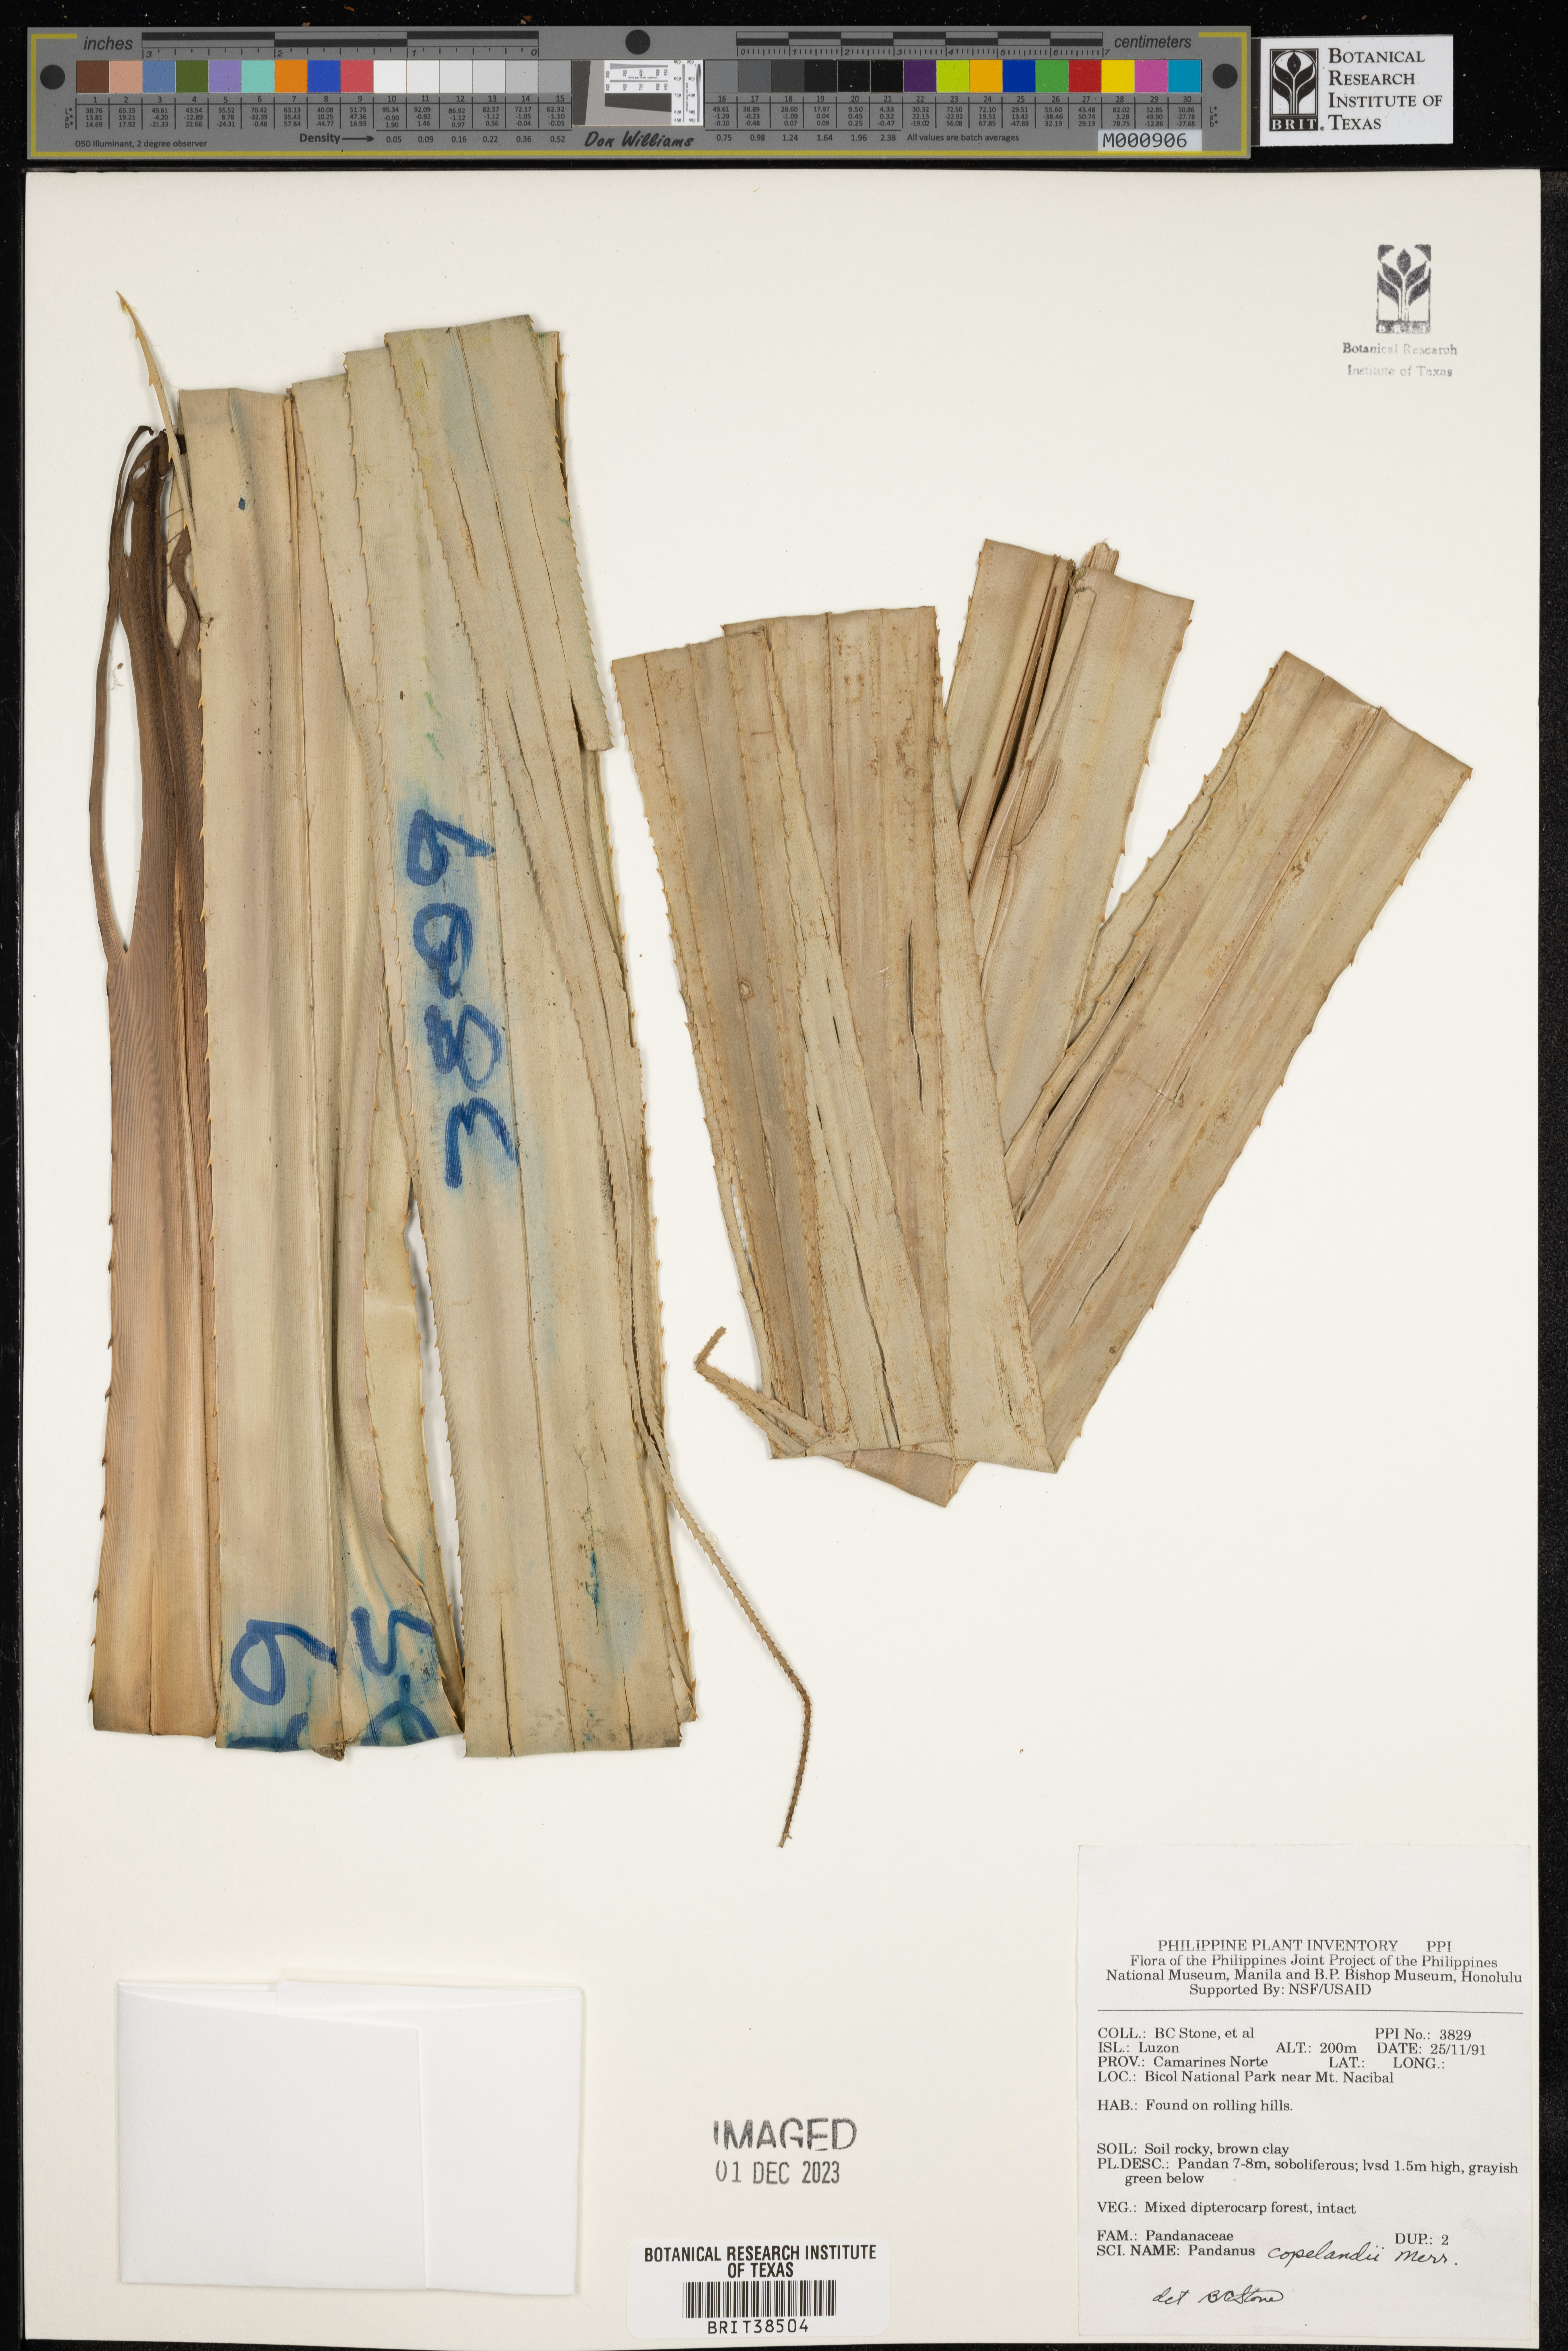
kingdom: Plantae
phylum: Tracheophyta
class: Liliopsida
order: Pandanales
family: Pandanaceae
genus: Benstonea
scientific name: Benstonea copelandii
